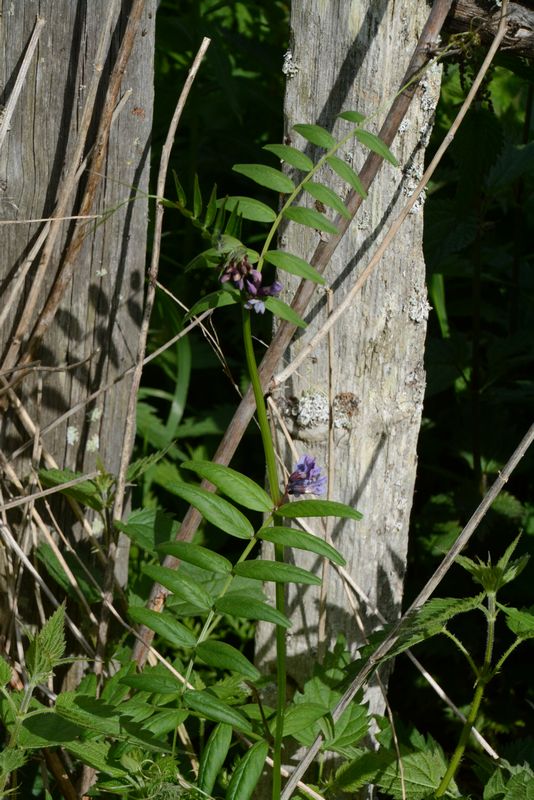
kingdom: Plantae
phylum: Tracheophyta
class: Magnoliopsida
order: Fabales
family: Fabaceae
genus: Vicia
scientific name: Vicia sepium
